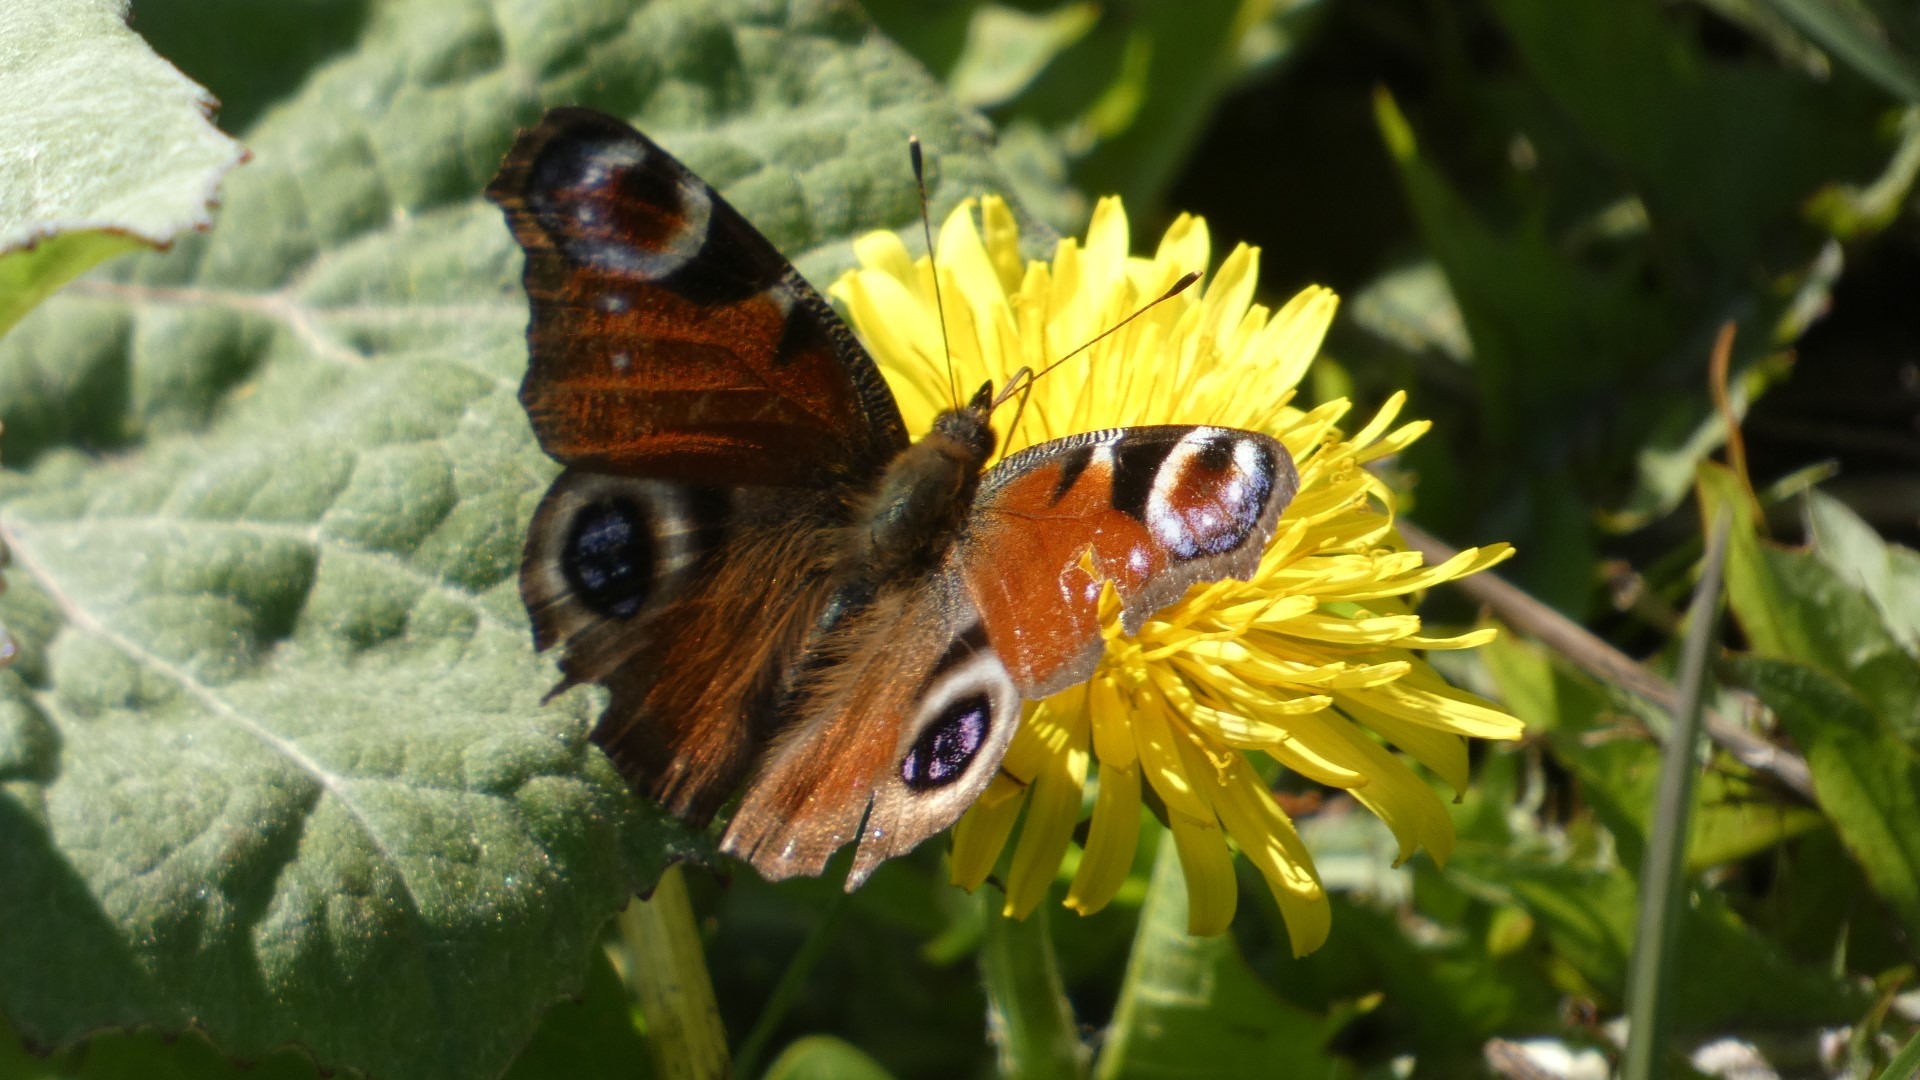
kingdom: Animalia
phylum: Arthropoda
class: Insecta
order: Lepidoptera
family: Nymphalidae
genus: Aglais
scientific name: Aglais io
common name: Dagpåfugleøje
